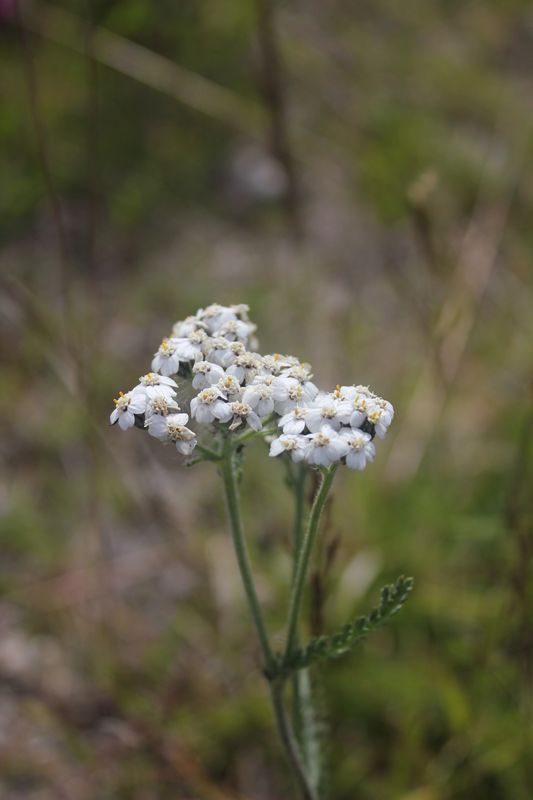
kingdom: Plantae
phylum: Tracheophyta
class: Magnoliopsida
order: Asterales
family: Asteraceae
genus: Achillea
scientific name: Achillea
